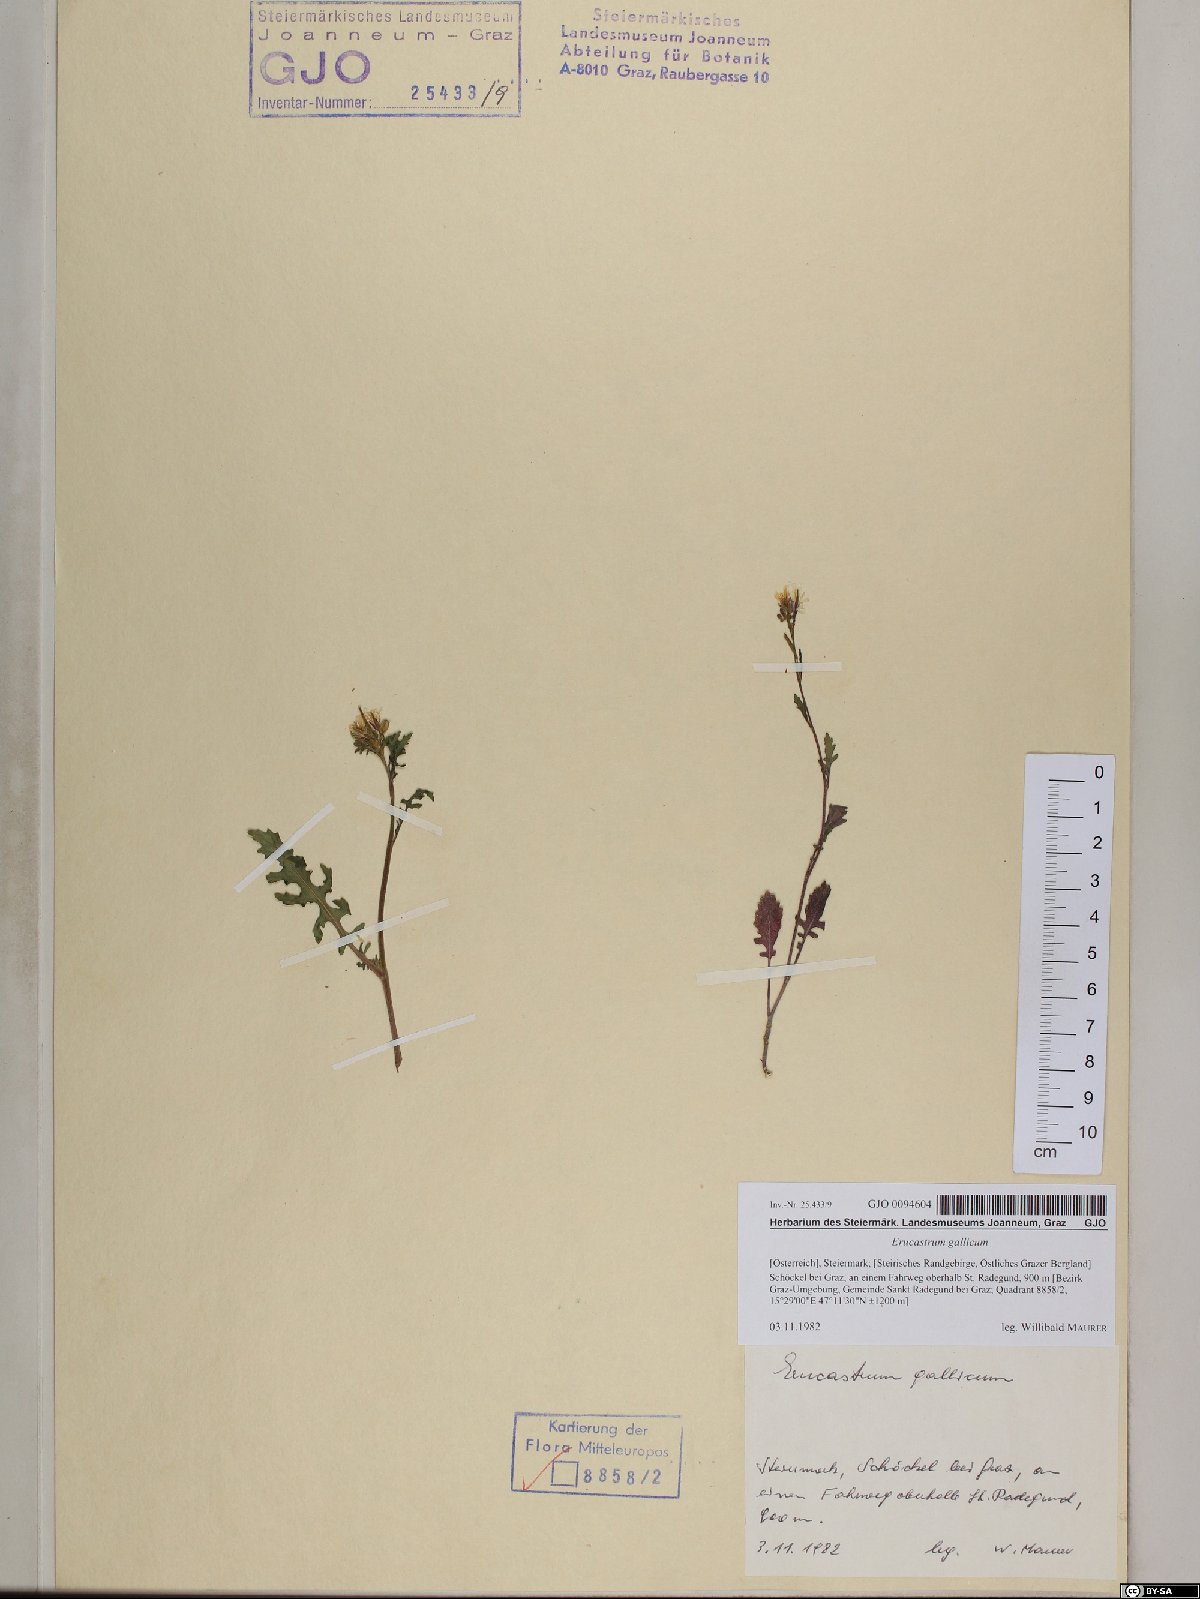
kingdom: Plantae
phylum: Tracheophyta
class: Magnoliopsida
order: Brassicales
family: Brassicaceae
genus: Erucastrum
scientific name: Erucastrum gallicum
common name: Hairy rocket
